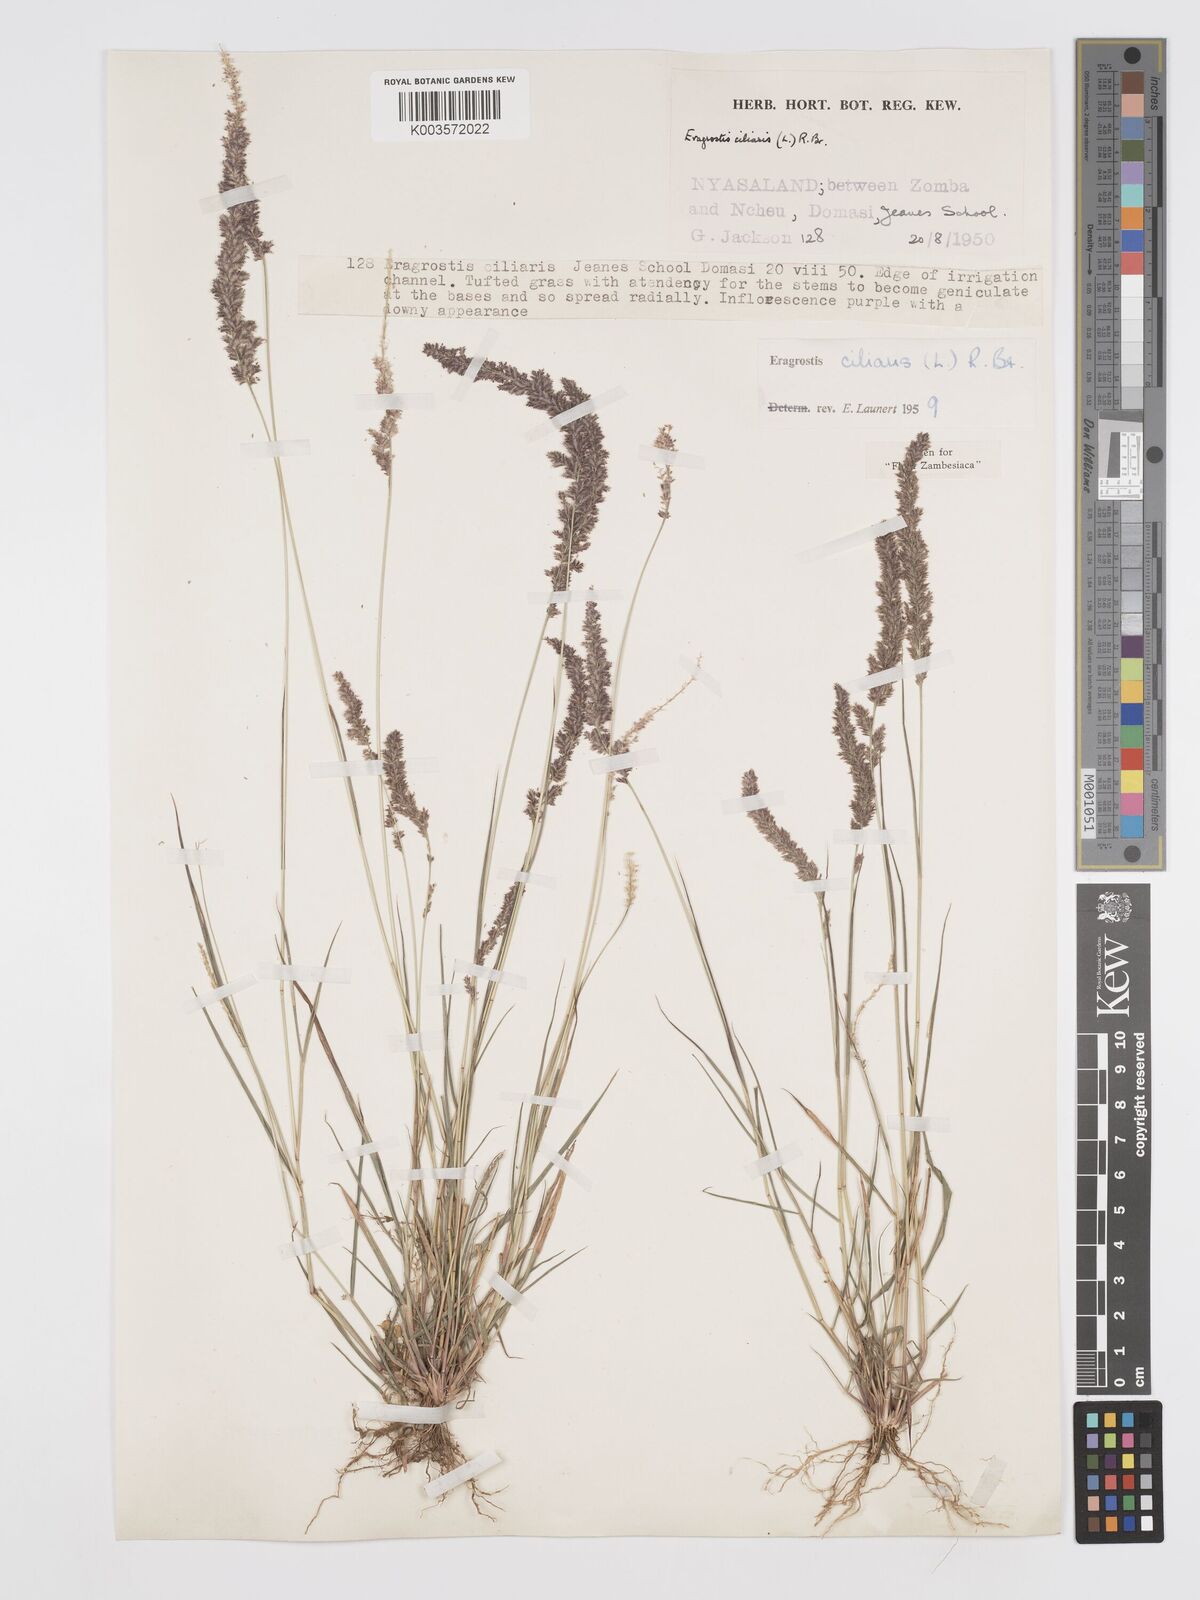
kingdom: Plantae
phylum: Tracheophyta
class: Liliopsida
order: Poales
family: Poaceae
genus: Eragrostis
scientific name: Eragrostis ciliaris
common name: Gophertail lovegrass
